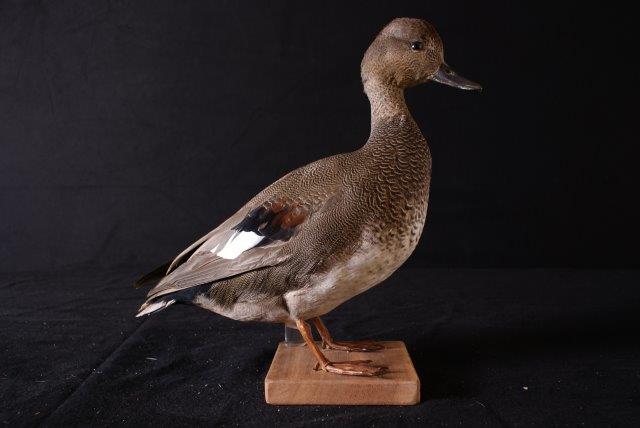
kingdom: Animalia
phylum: Chordata
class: Aves
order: Anseriformes
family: Anatidae
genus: Mareca
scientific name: Mareca strepera
